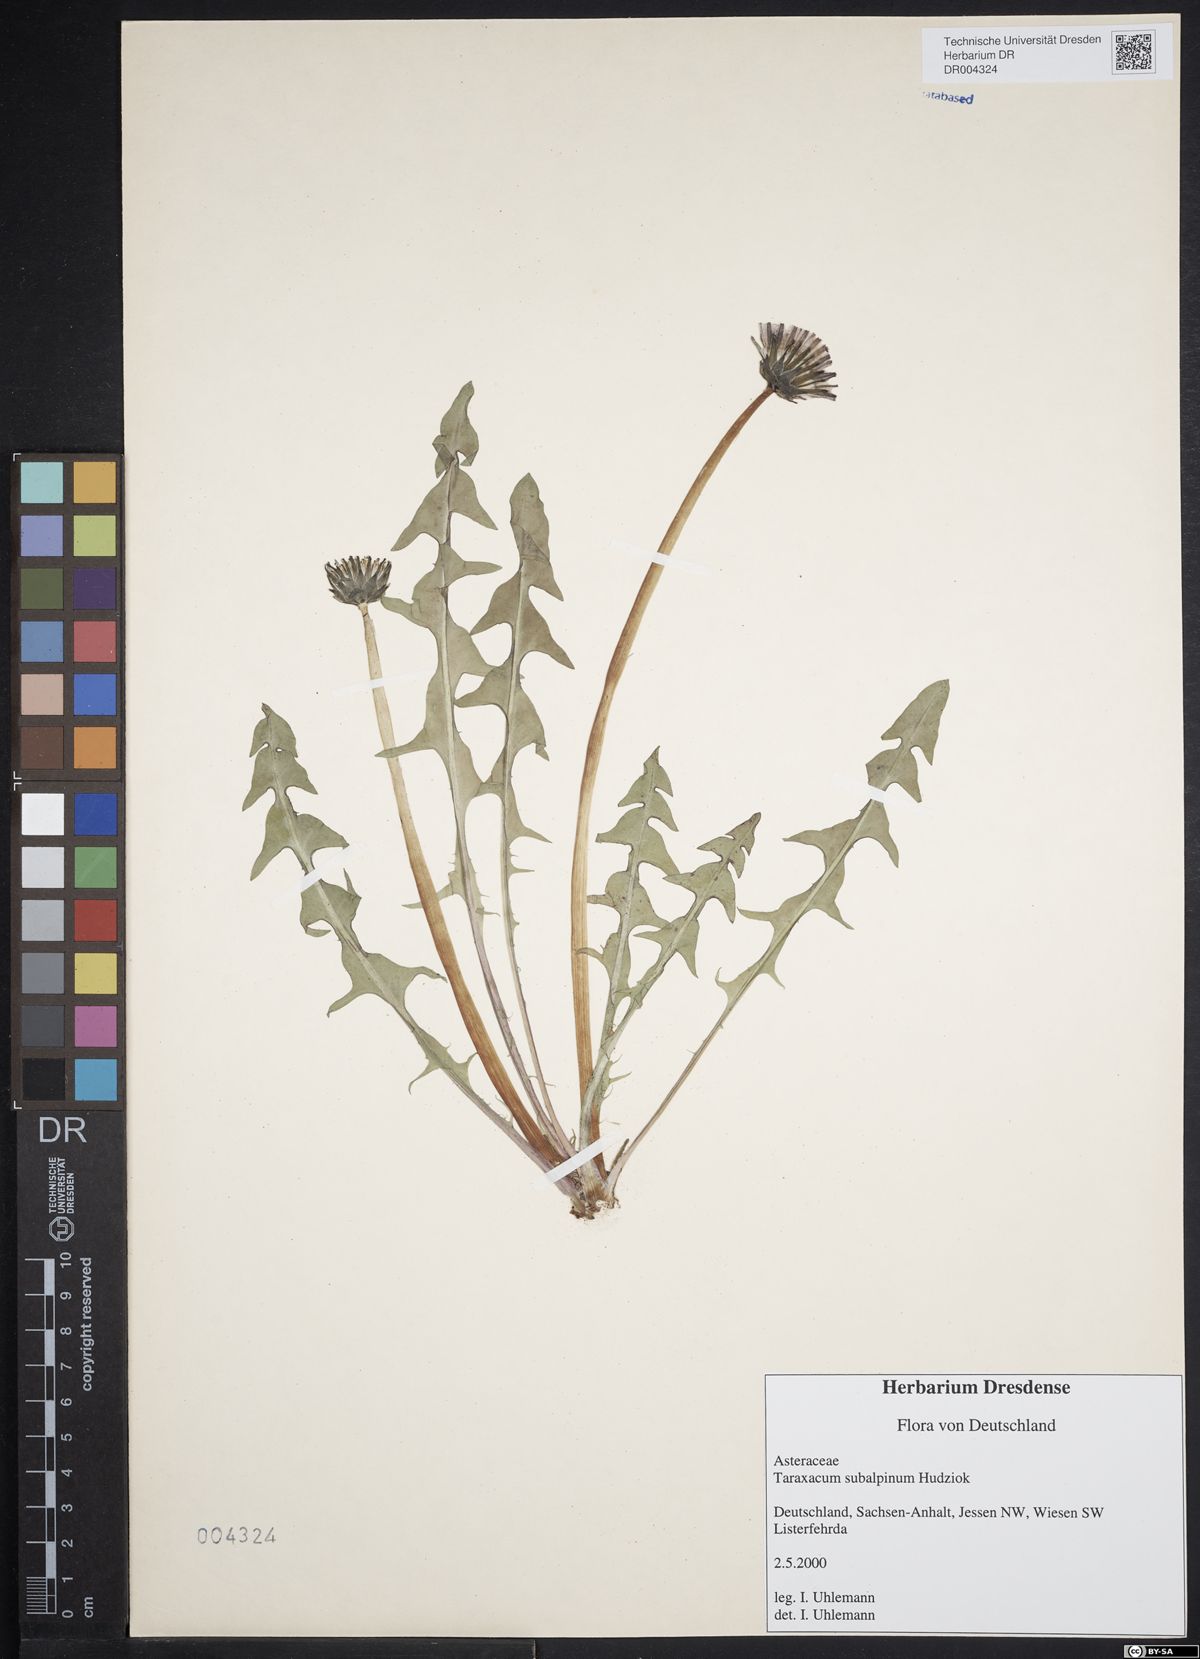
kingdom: Plantae
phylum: Tracheophyta
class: Magnoliopsida
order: Asterales
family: Asteraceae
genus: Taraxacum
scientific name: Taraxacum subalpinum
